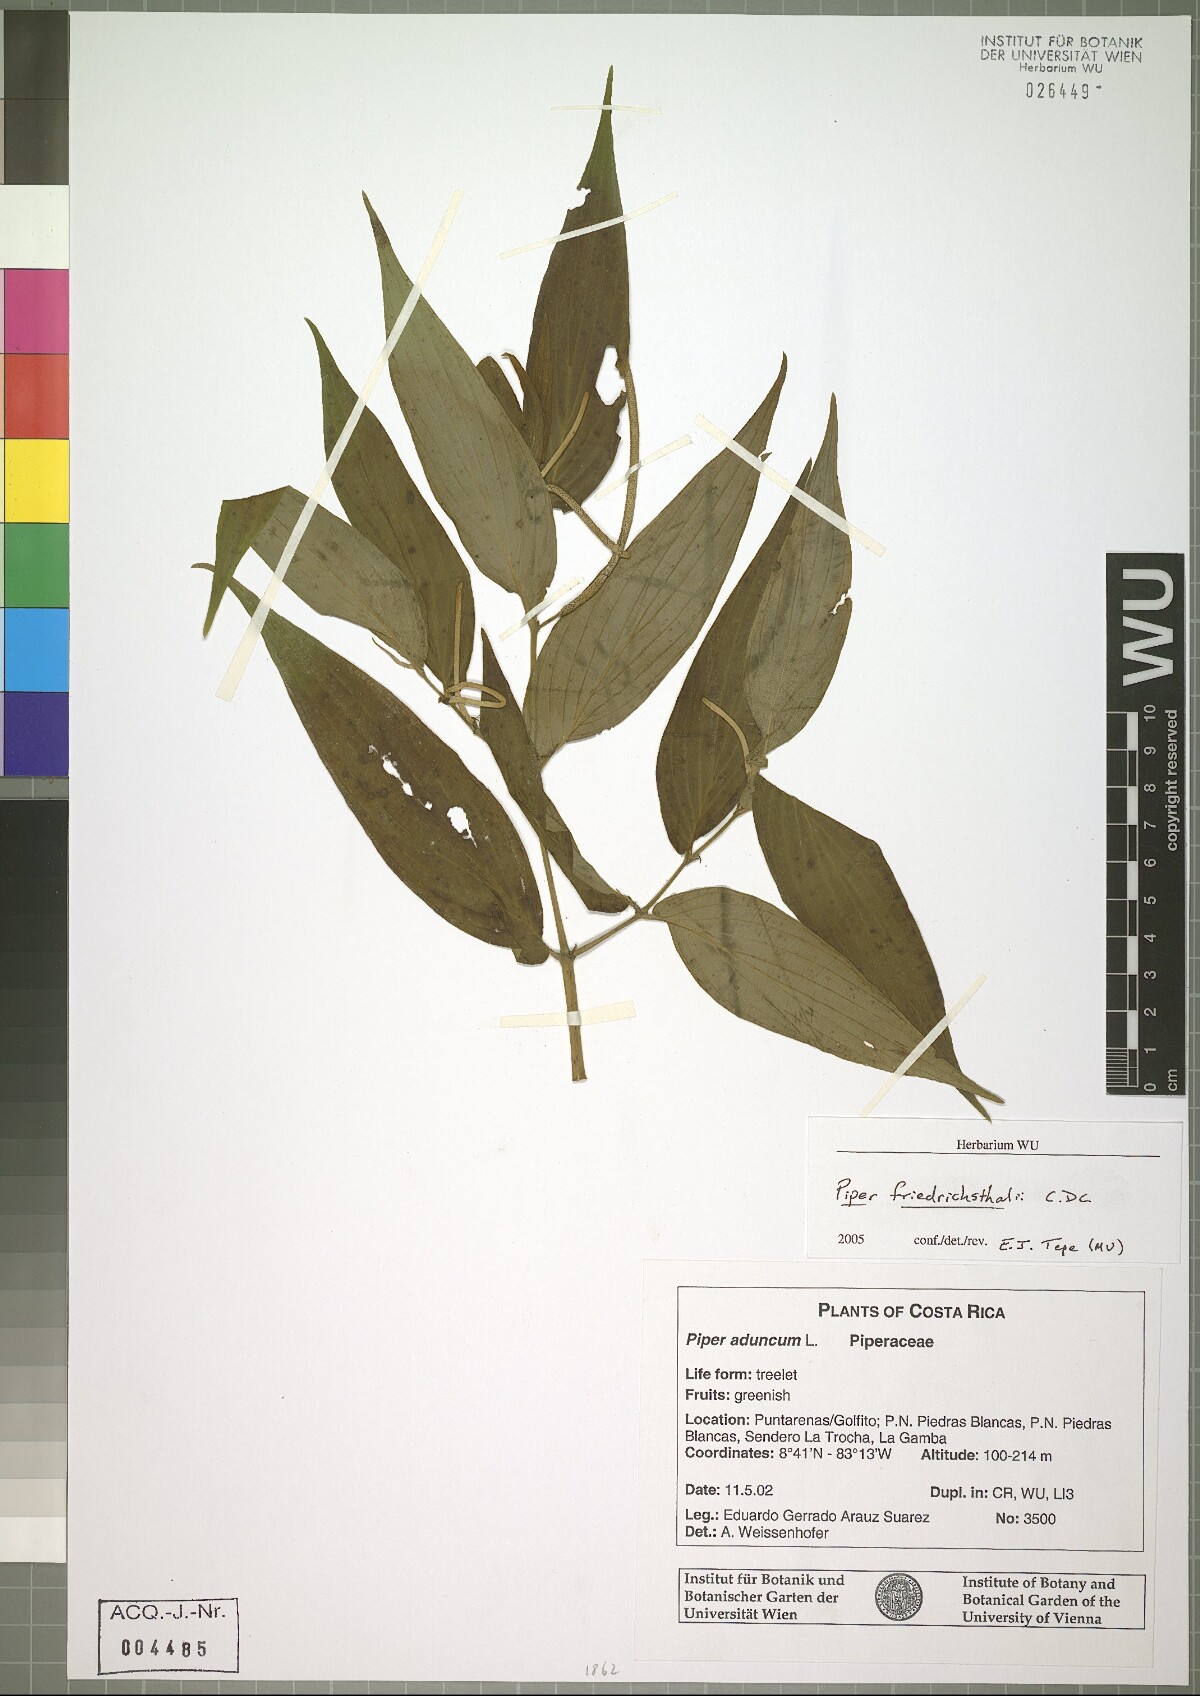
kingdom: Plantae
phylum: Tracheophyta
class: Magnoliopsida
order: Piperales
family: Piperaceae
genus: Piper
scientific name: Piper friedrichsthalii
